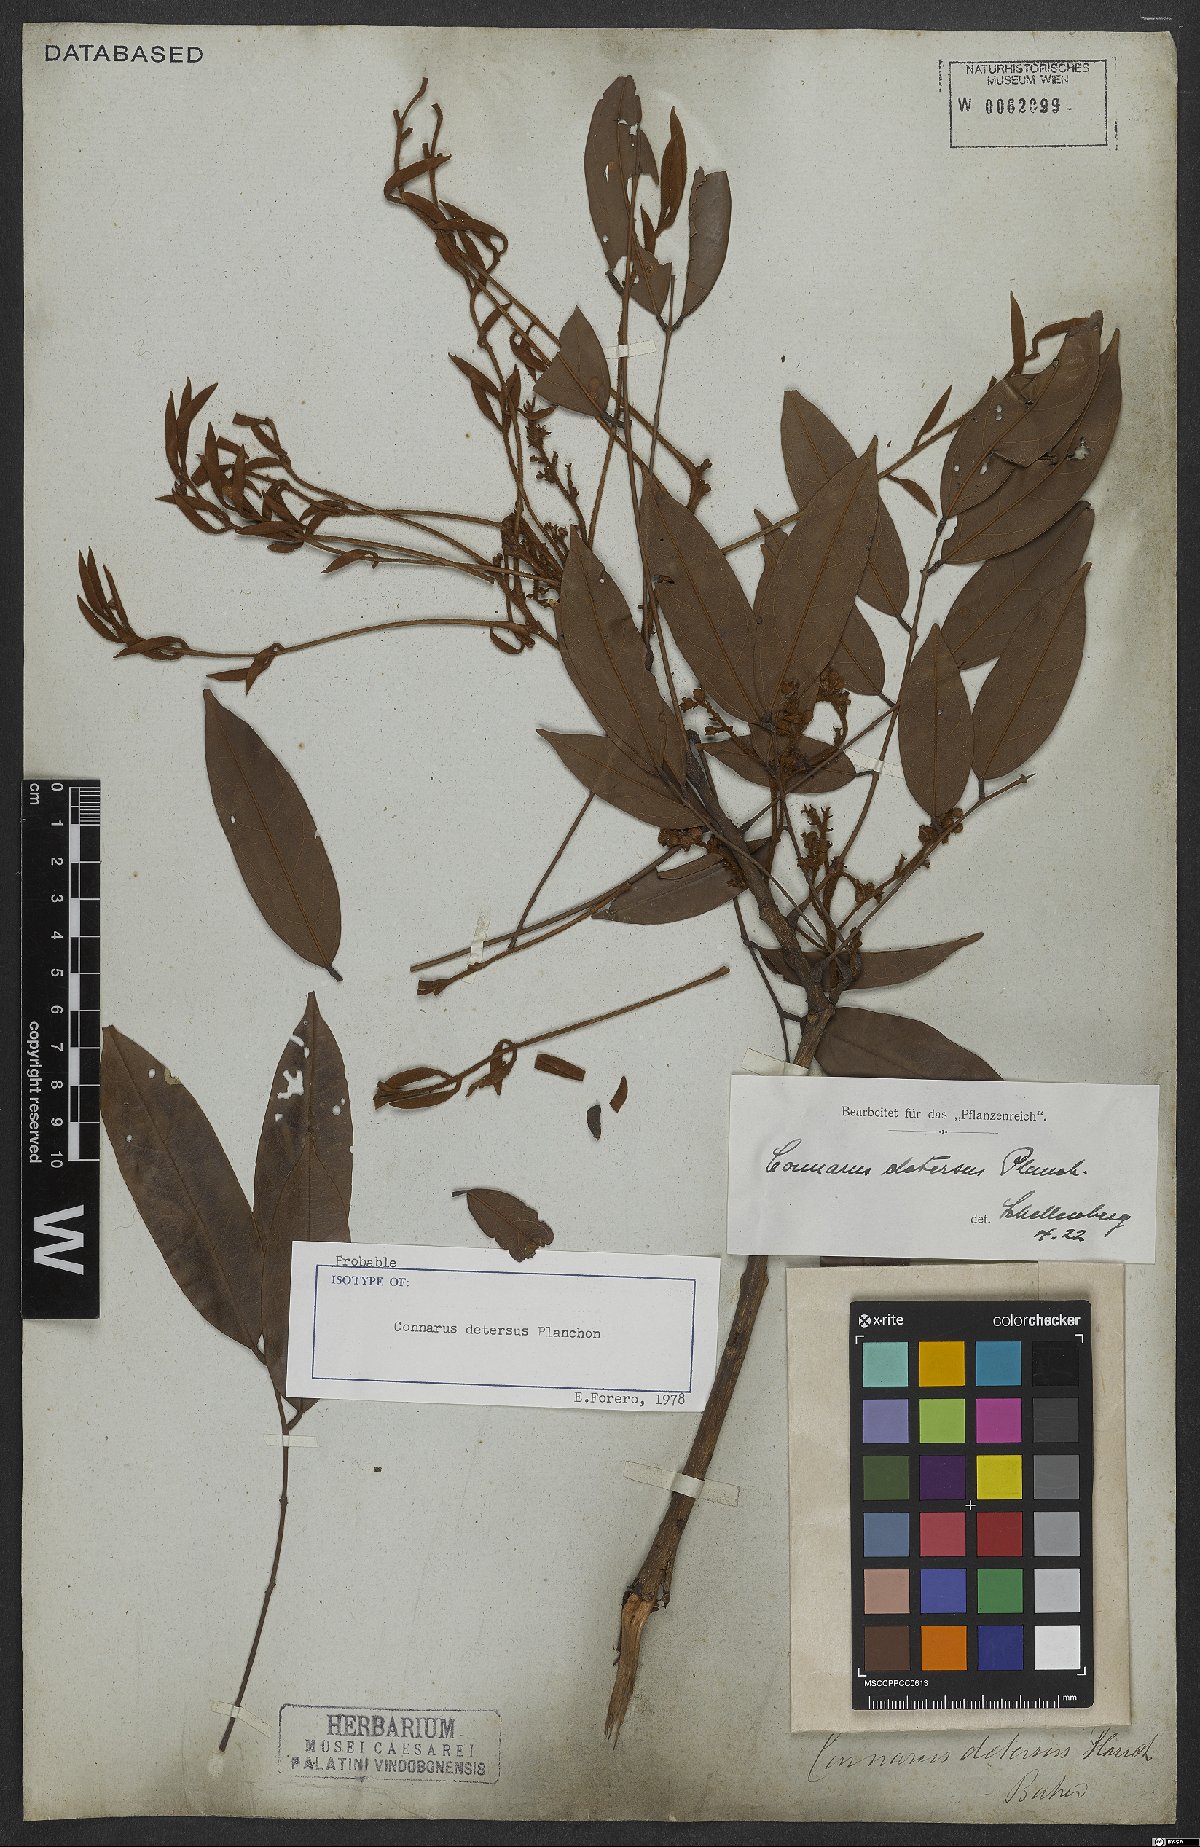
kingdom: Plantae
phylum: Tracheophyta
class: Magnoliopsida
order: Oxalidales
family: Connaraceae
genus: Connarus
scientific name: Connarus detersus
